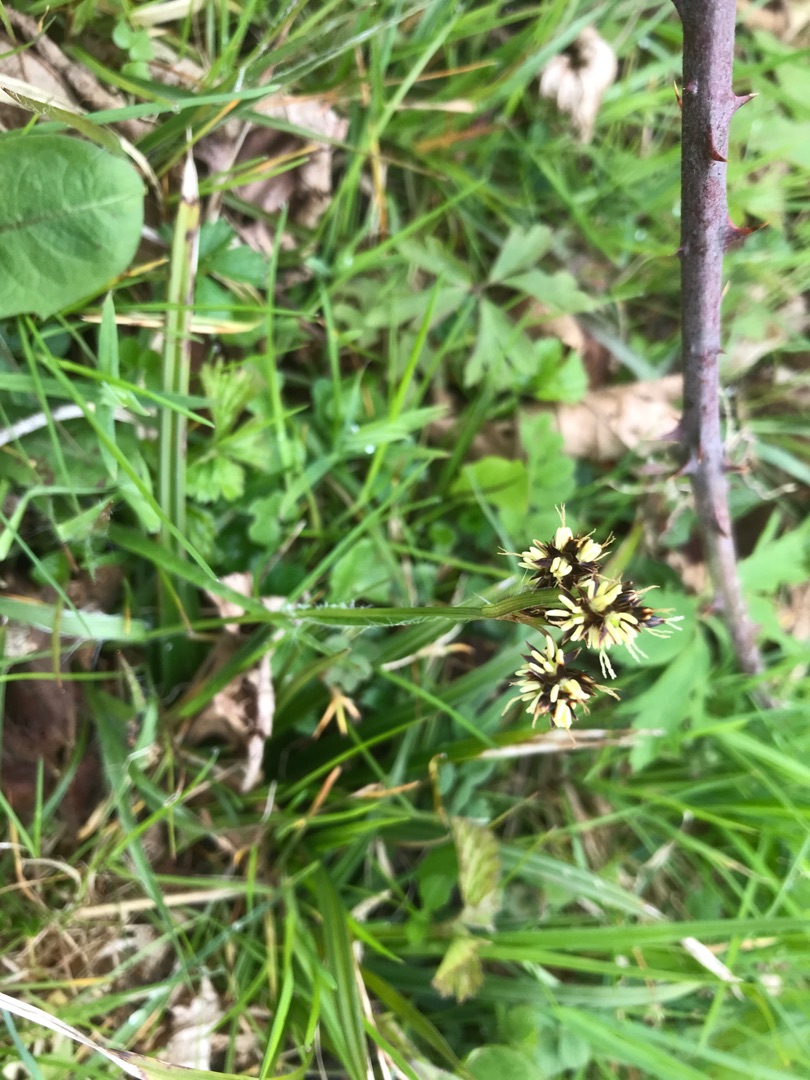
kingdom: Plantae
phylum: Tracheophyta
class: Liliopsida
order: Poales
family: Juncaceae
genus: Luzula
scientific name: Luzula campestris
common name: Mark-frytle
